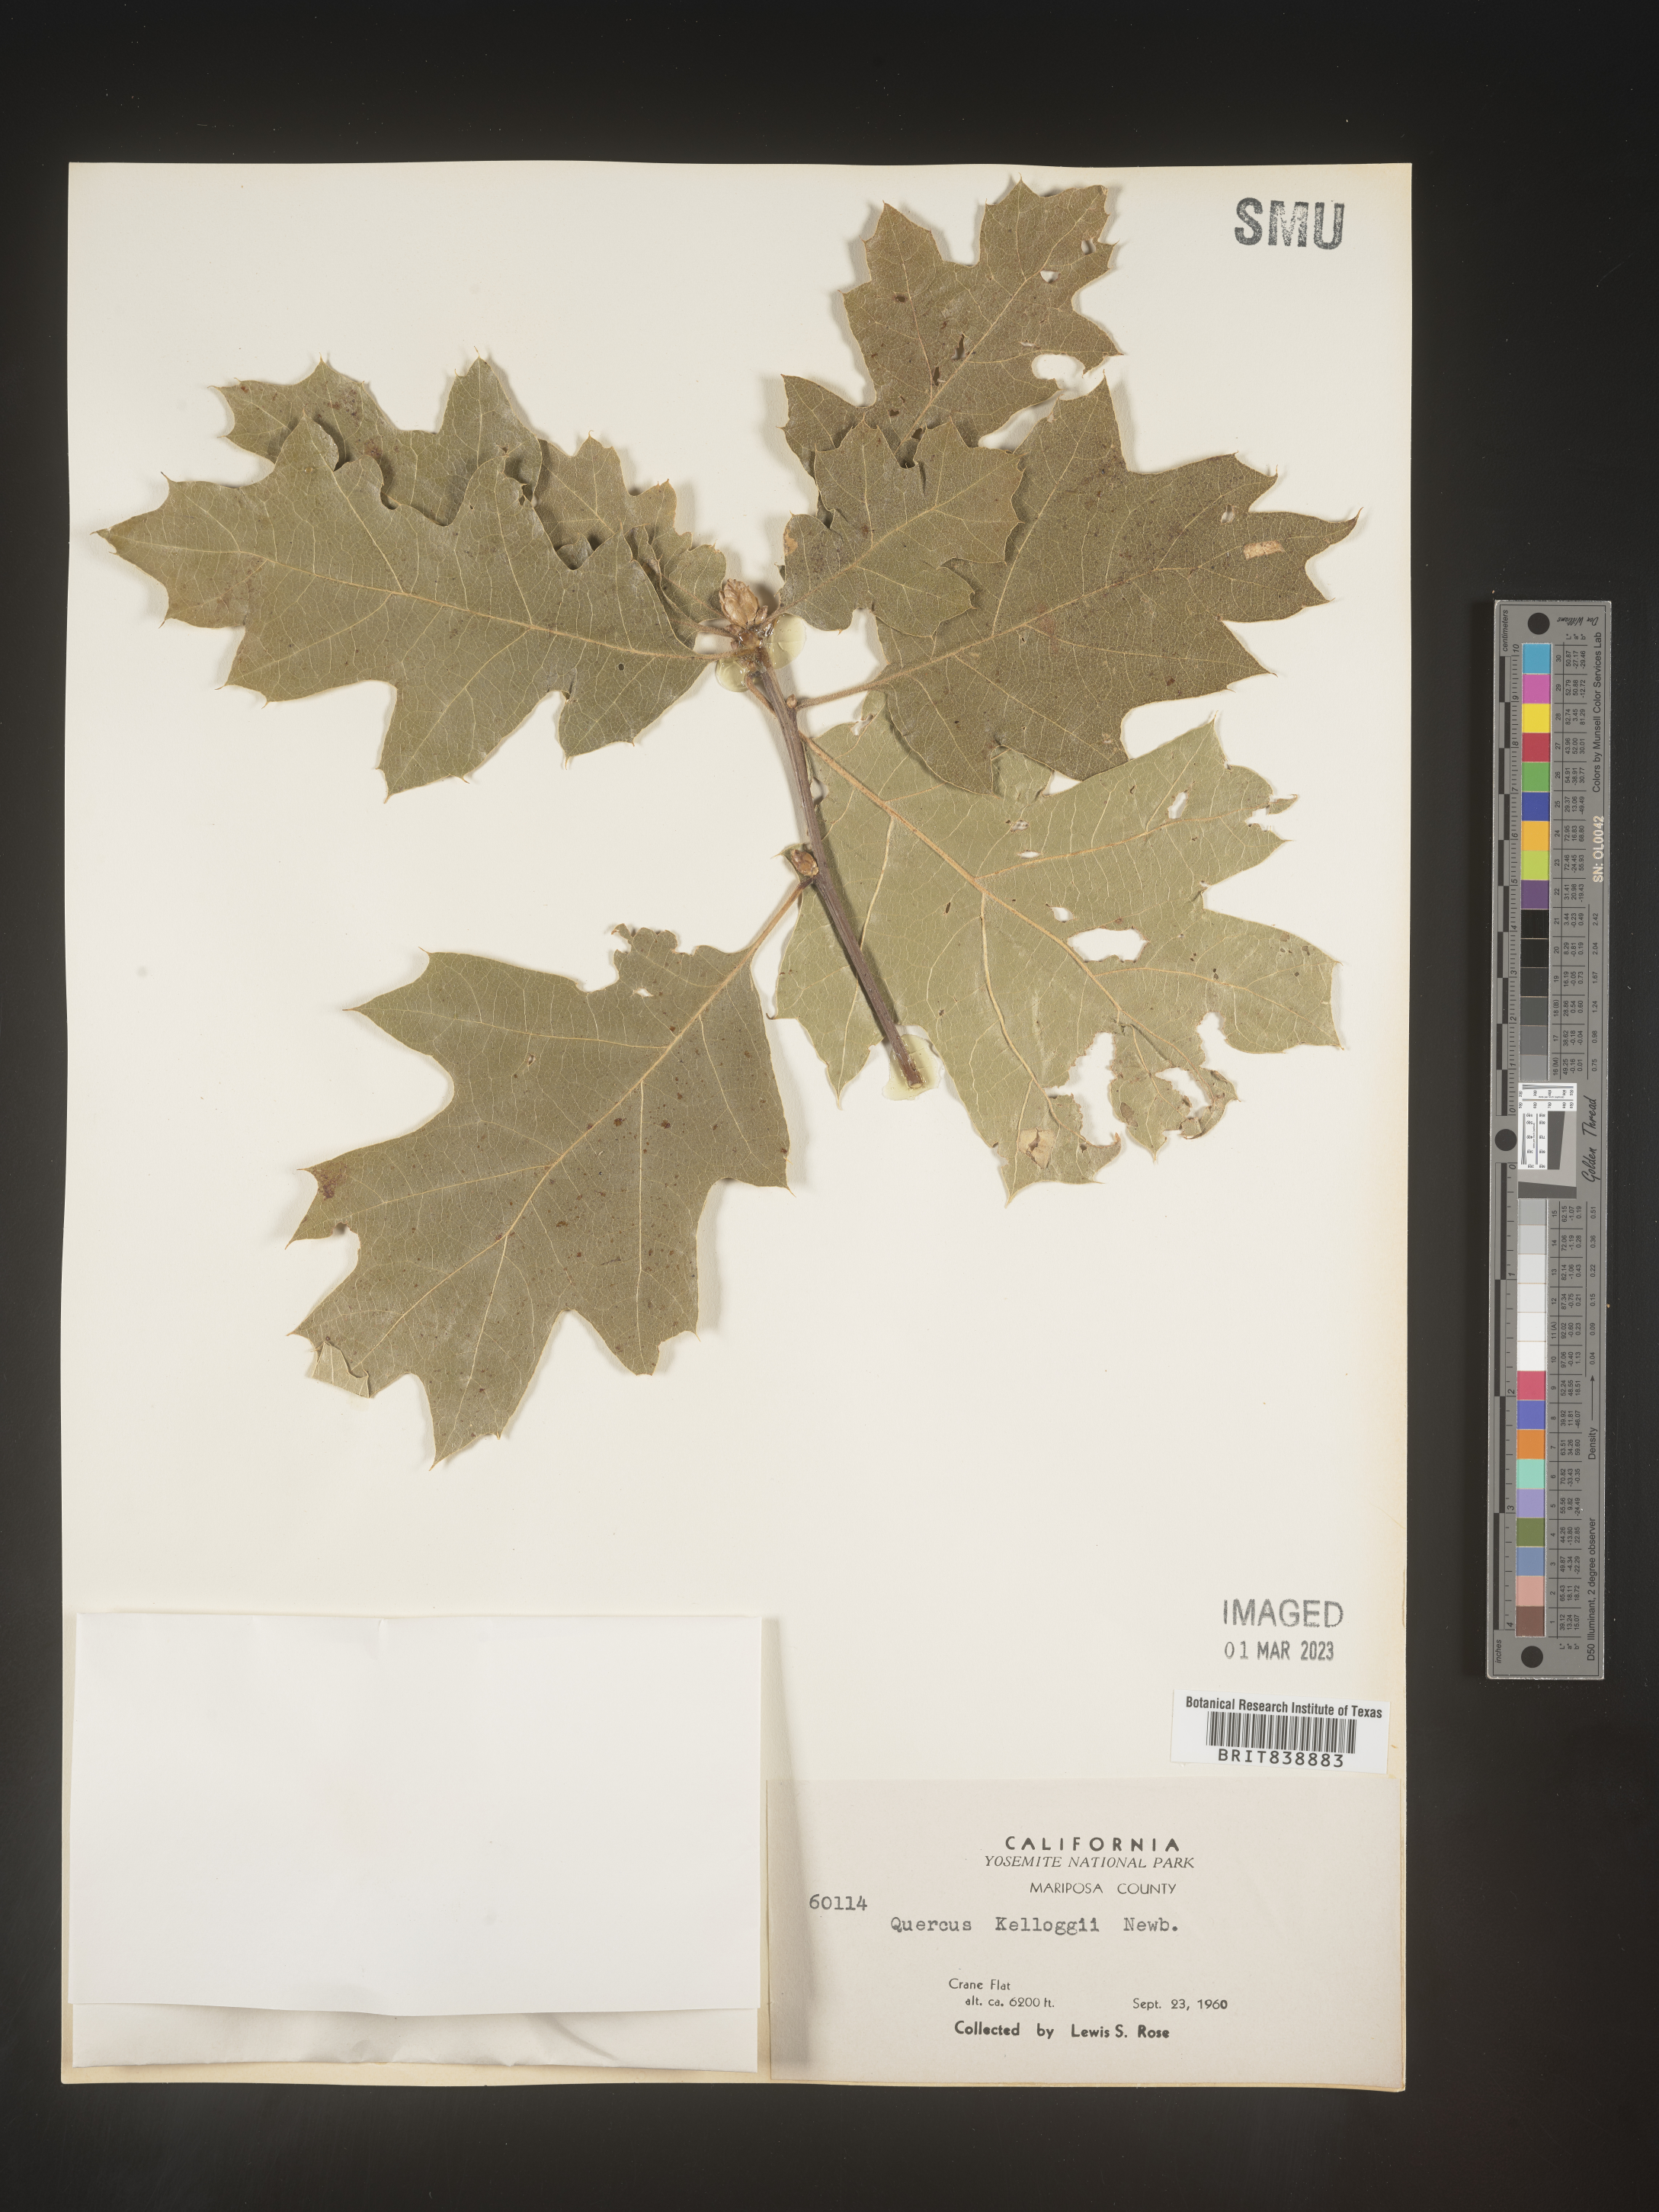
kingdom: Plantae
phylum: Tracheophyta
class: Magnoliopsida
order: Fagales
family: Fagaceae
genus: Quercus
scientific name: Quercus kelloggii
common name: California black oak
